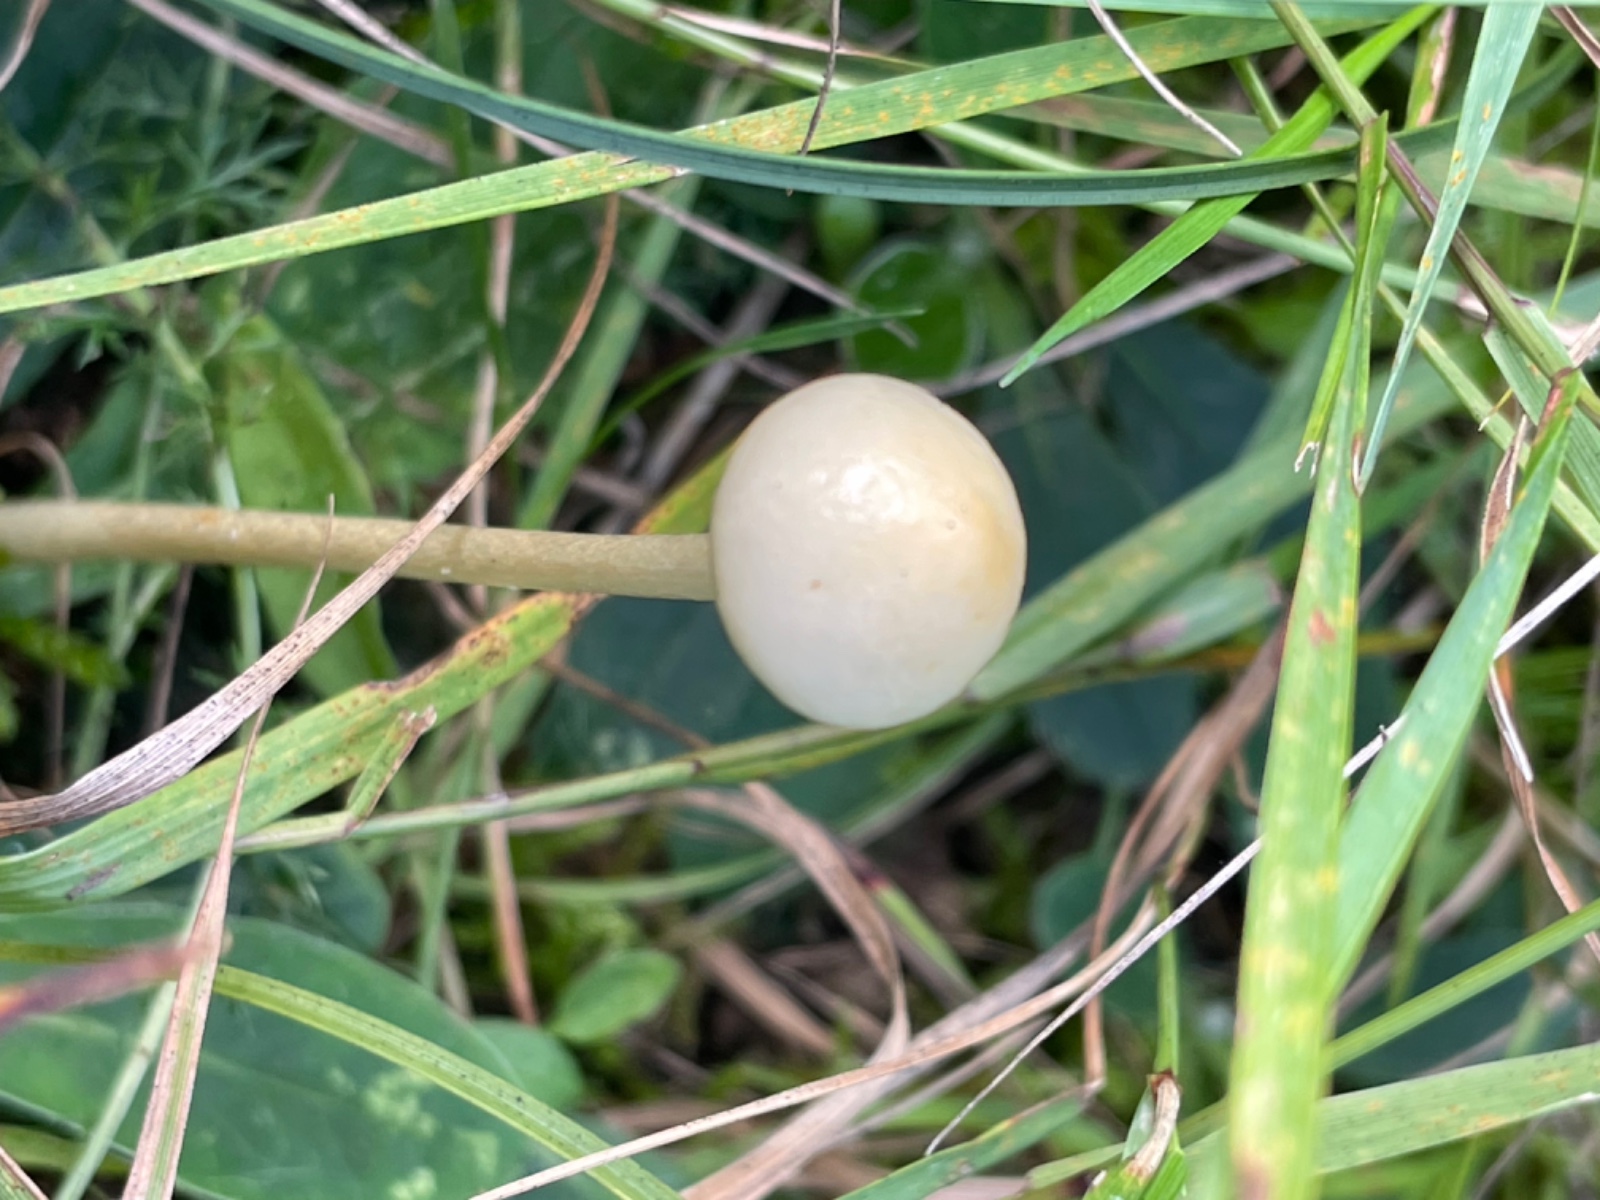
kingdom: Fungi
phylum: Basidiomycota
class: Agaricomycetes
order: Agaricales
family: Strophariaceae
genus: Protostropharia
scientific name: Protostropharia semiglobata
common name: halvkugleformet bredblad
